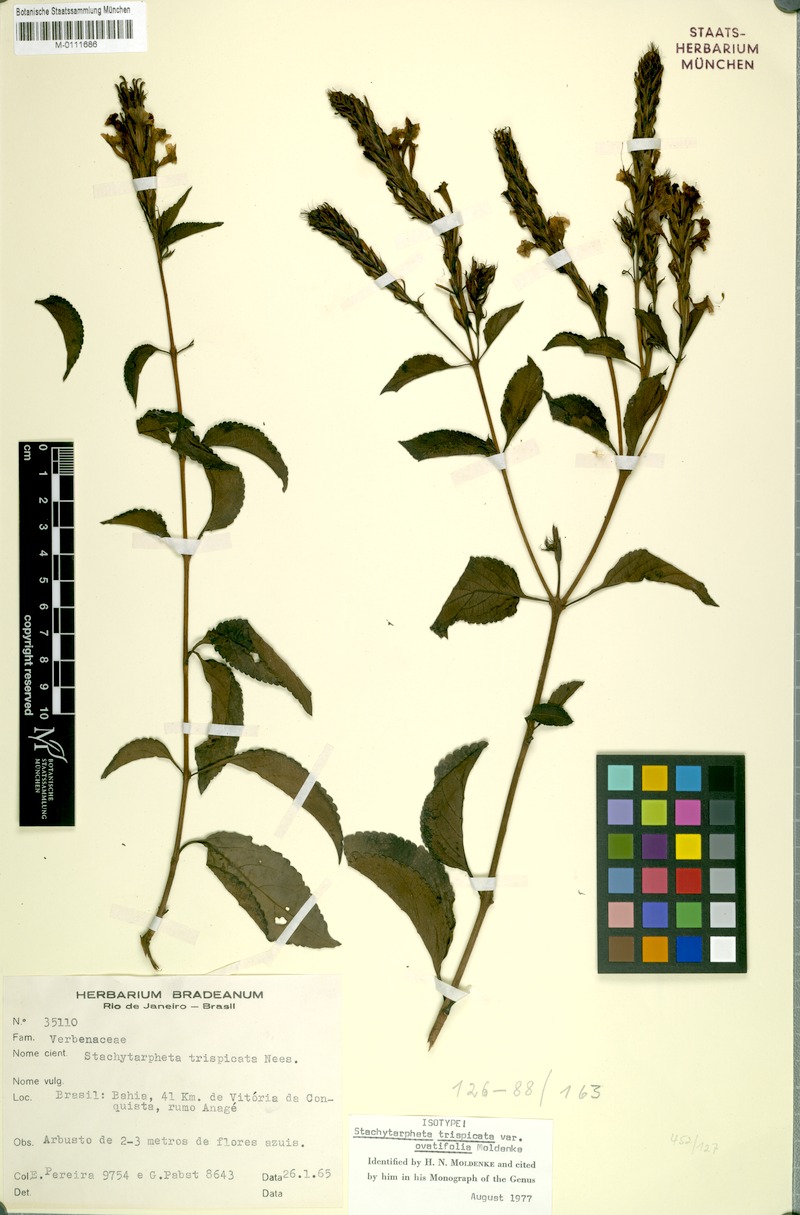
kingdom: Plantae
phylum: Tracheophyta
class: Magnoliopsida
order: Lamiales
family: Verbenaceae
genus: Stachytarpheta
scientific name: Stachytarpheta trispicata
